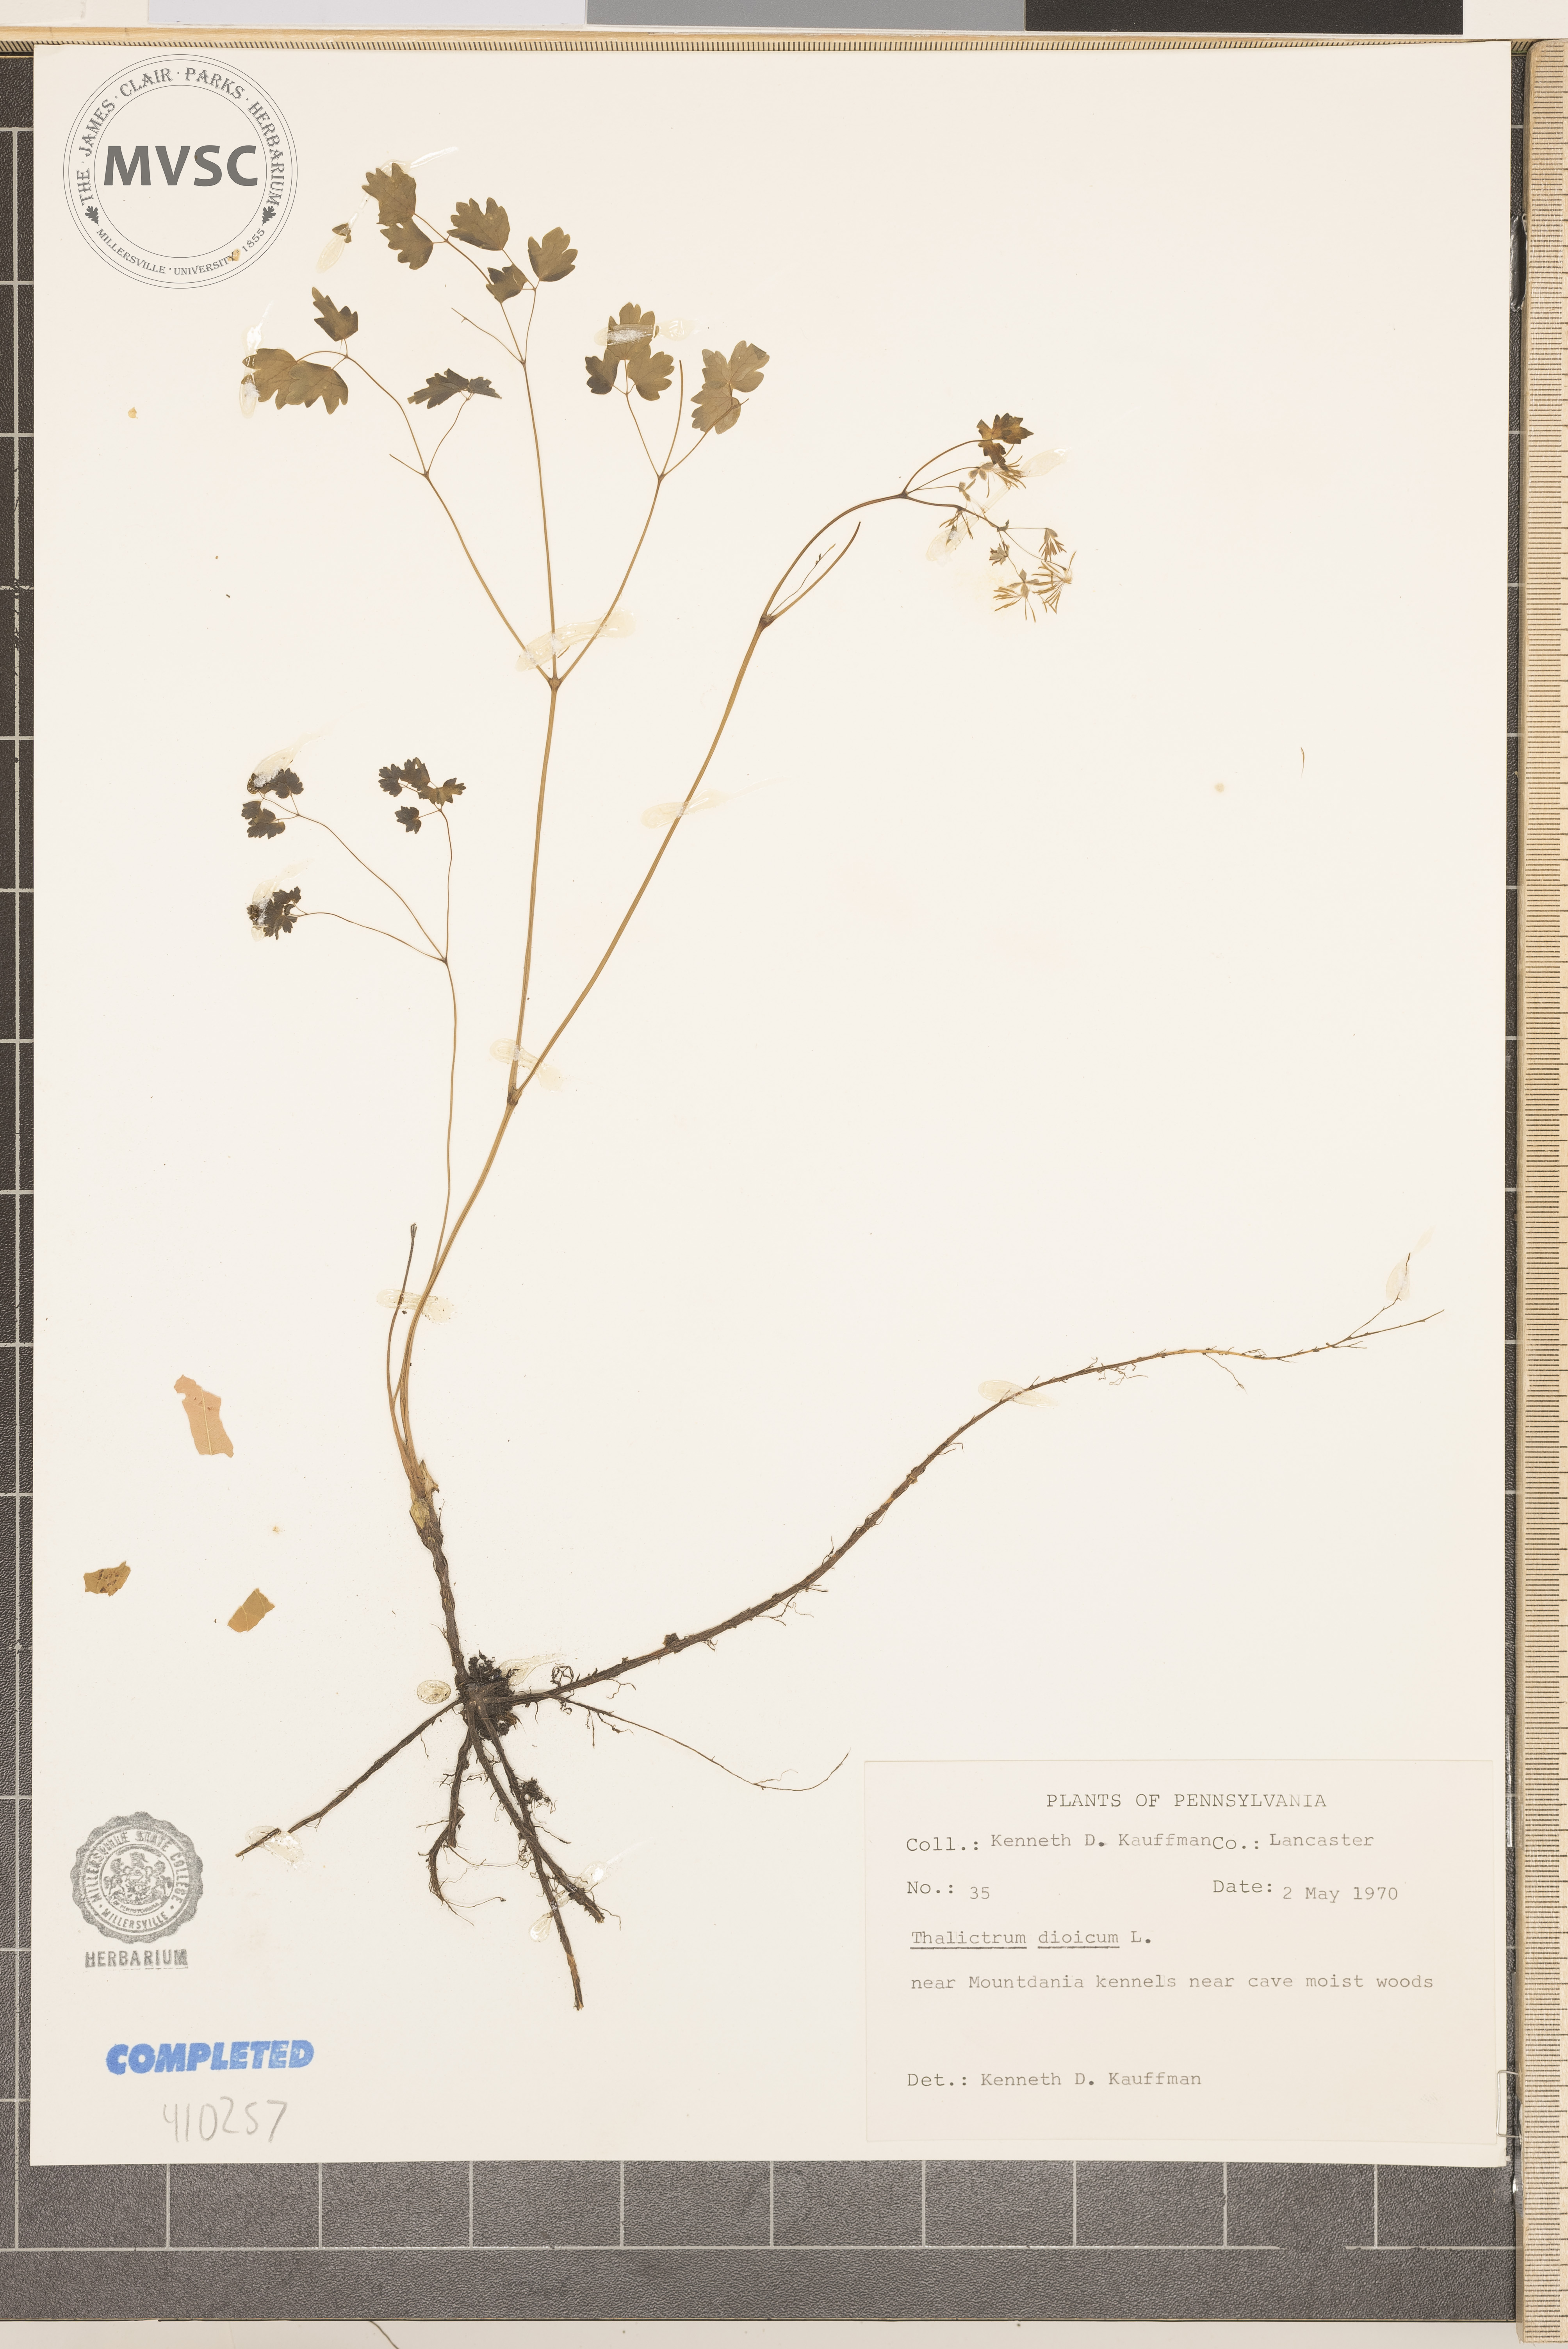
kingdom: Plantae
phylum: Tracheophyta
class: Magnoliopsida
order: Ranunculales
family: Ranunculaceae
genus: Thalictrum
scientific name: Thalictrum dioicum
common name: Early meadow-rue
